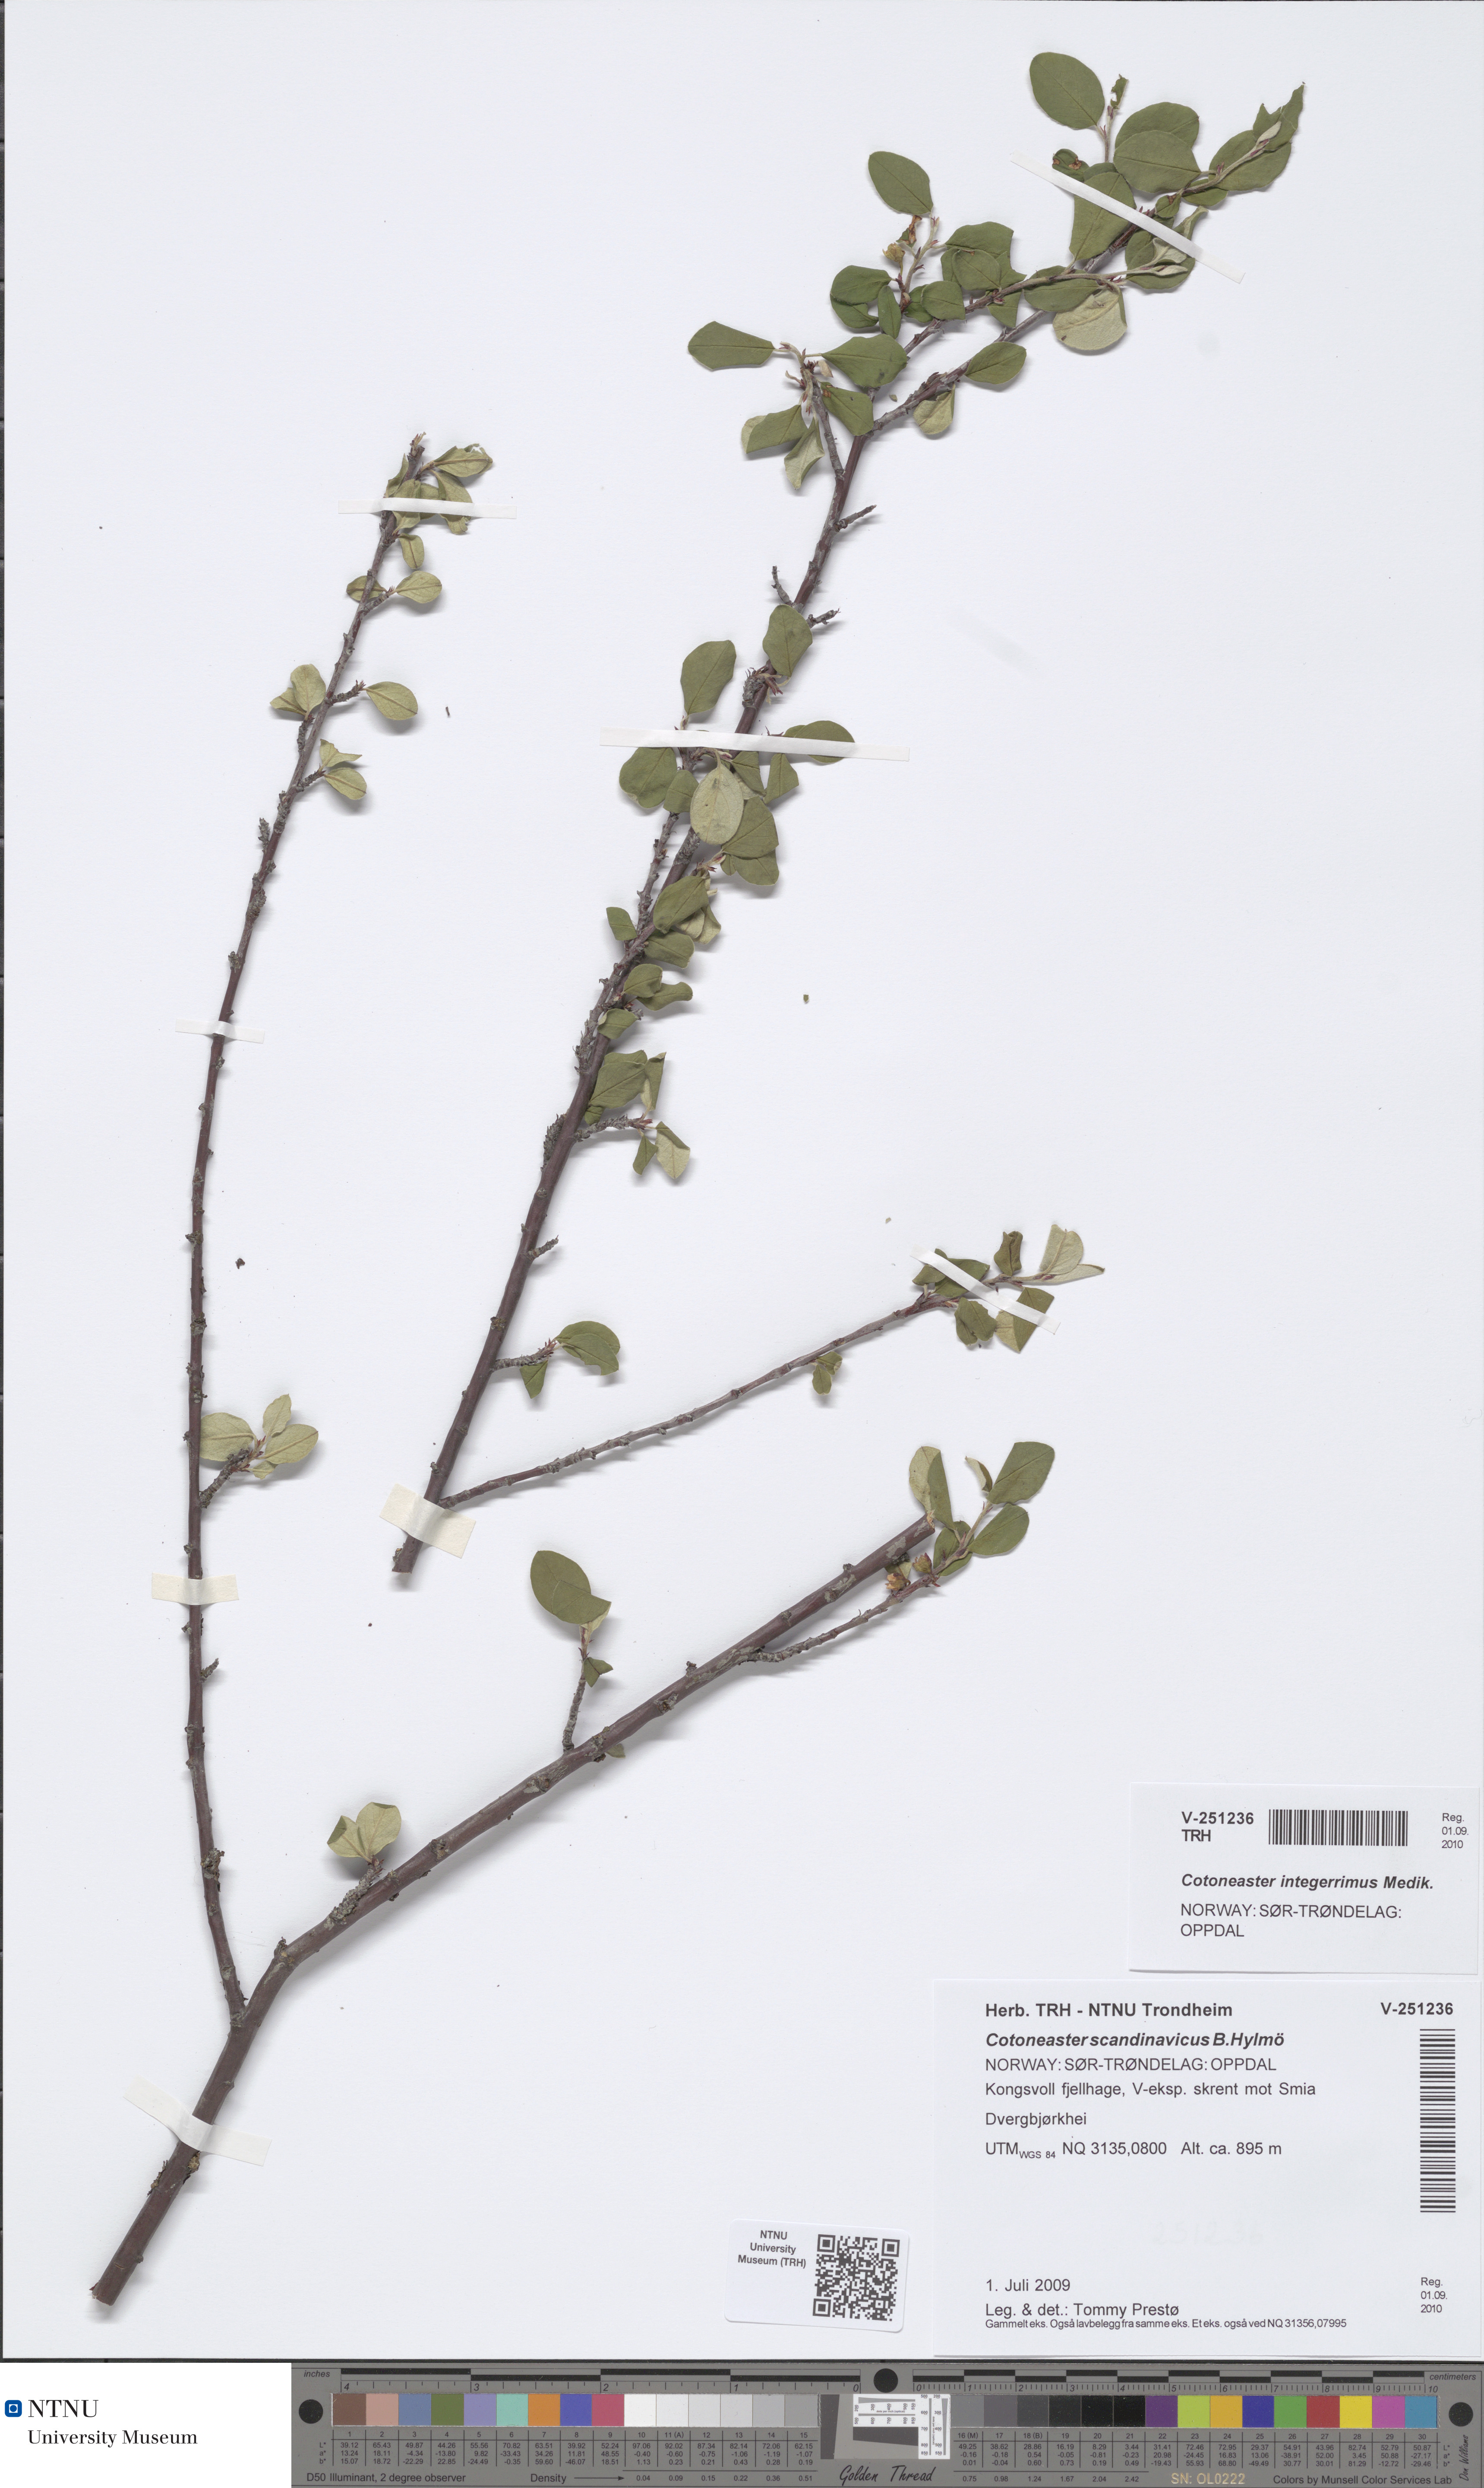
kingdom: Plantae
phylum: Tracheophyta
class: Magnoliopsida
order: Rosales
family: Rosaceae
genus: Cotoneaster
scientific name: Cotoneaster integerrimus
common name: Wild cotoneaster
